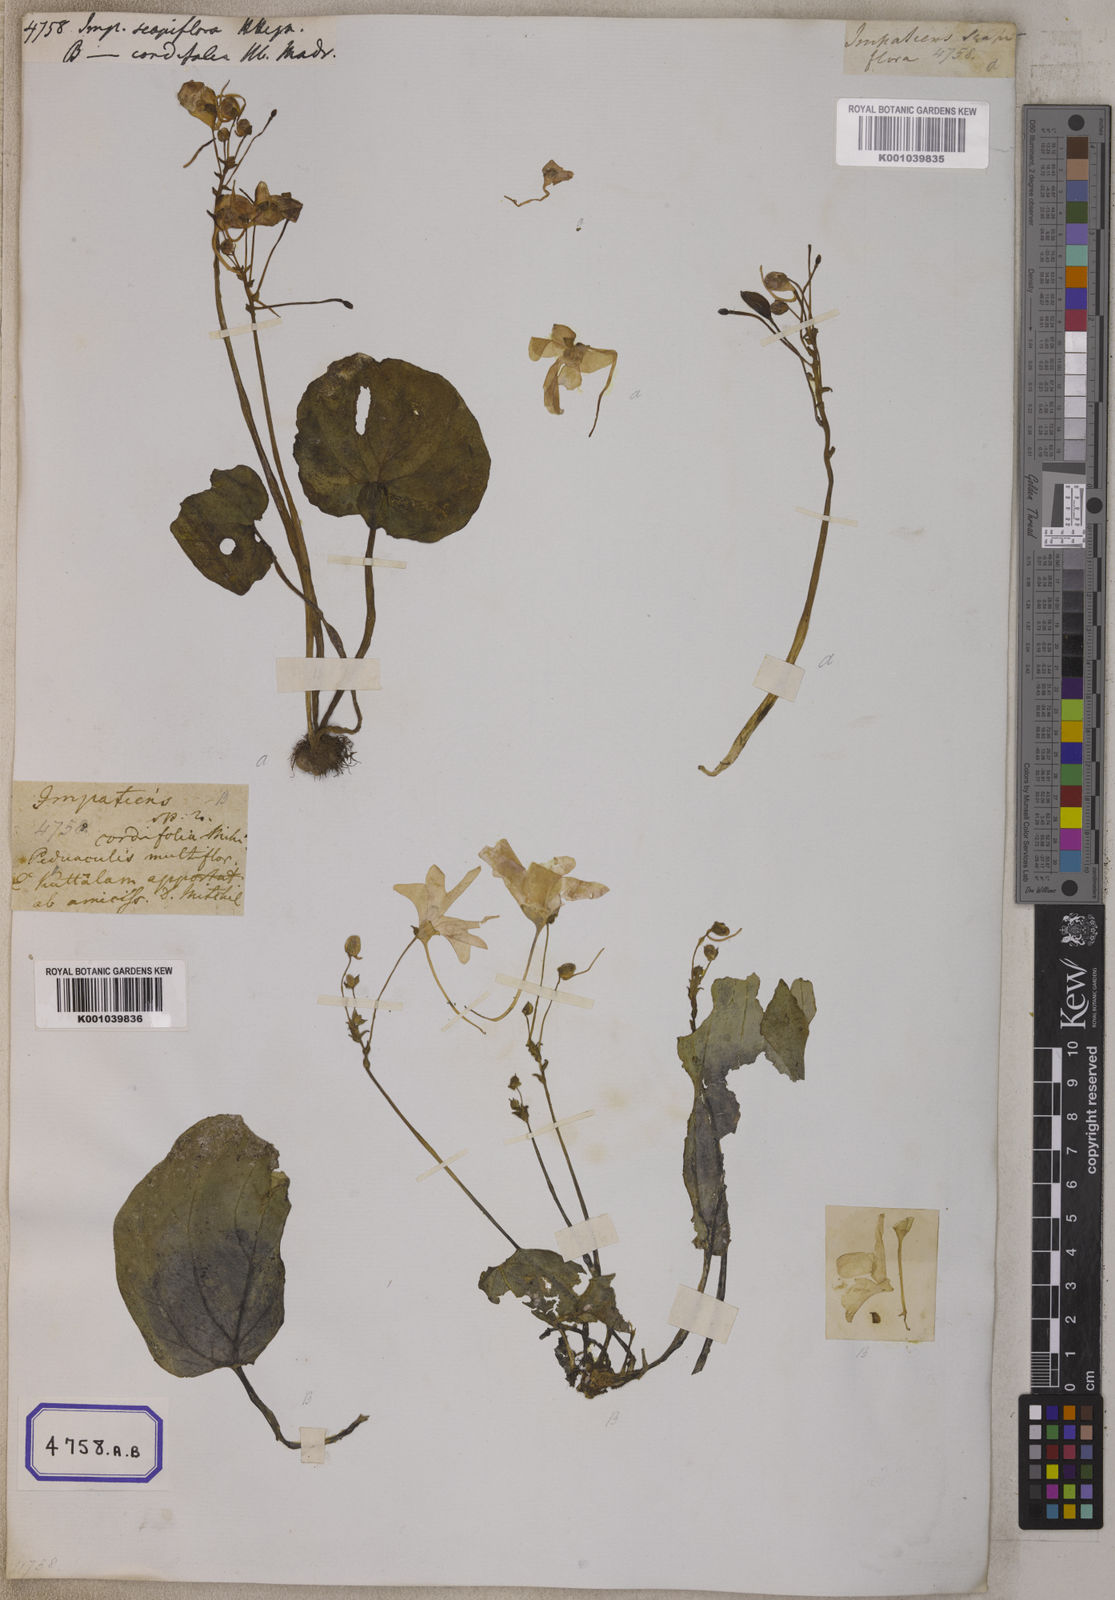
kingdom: Plantae
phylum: Tracheophyta
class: Magnoliopsida
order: Ericales
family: Balsaminaceae
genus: Impatiens
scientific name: Impatiens
